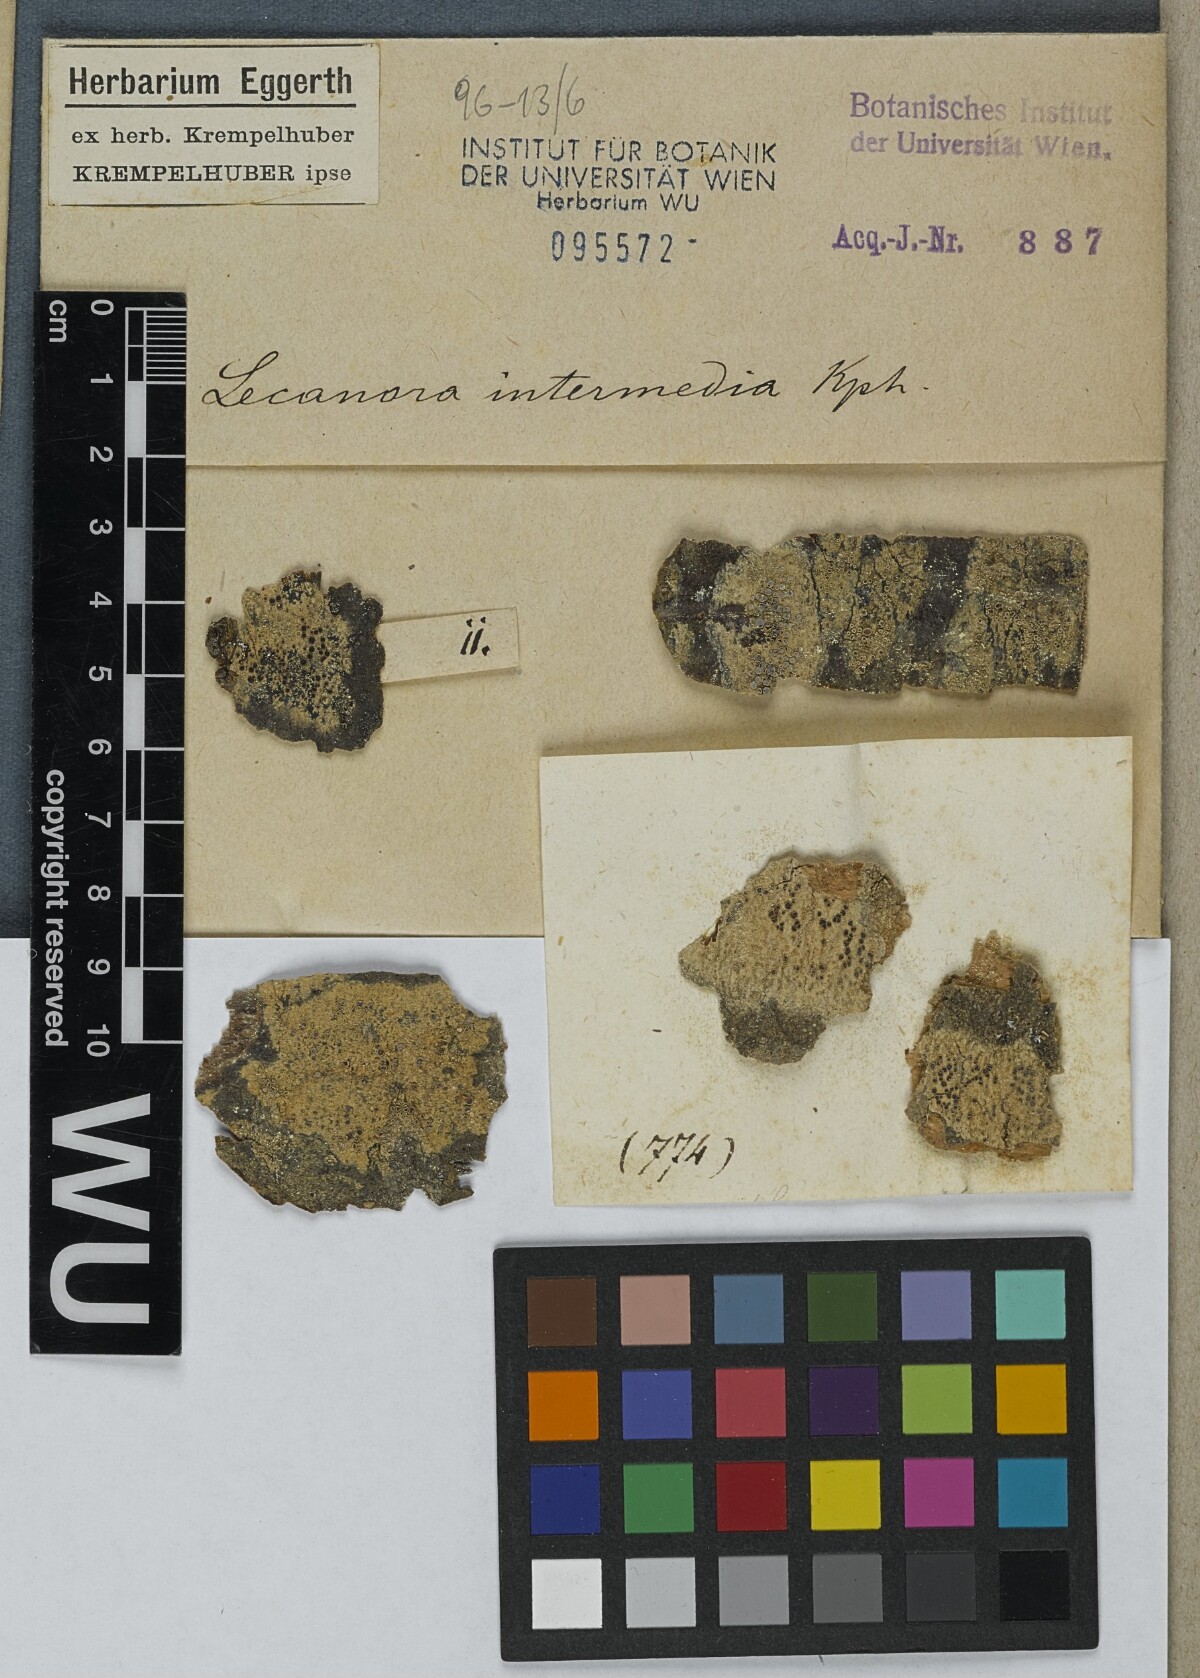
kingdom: Fungi
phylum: Ascomycota
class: Lecanoromycetes
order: Lecanorales
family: Lecanoraceae
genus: Lecanora
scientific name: Lecanora
